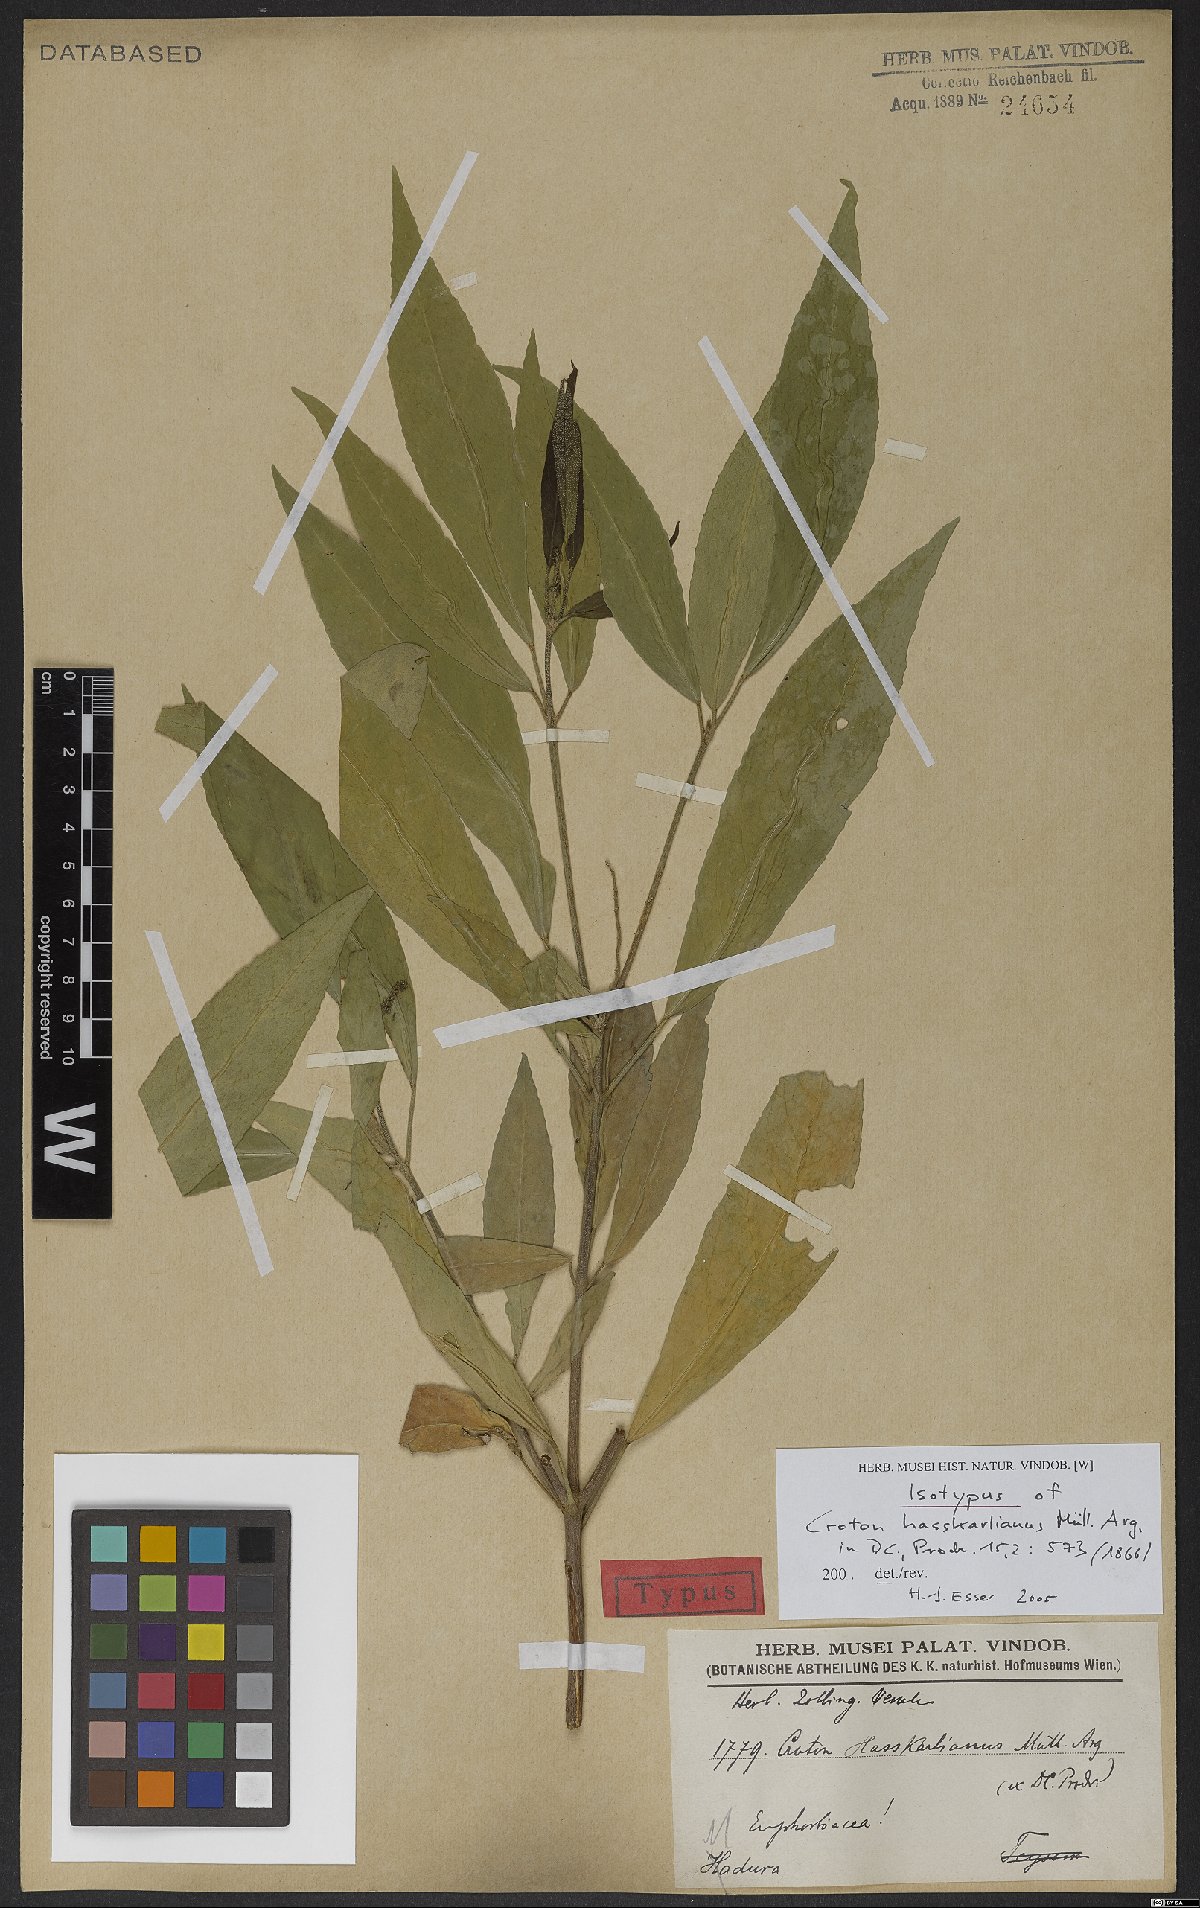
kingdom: Plantae
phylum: Tracheophyta
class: Magnoliopsida
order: Malpighiales
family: Euphorbiaceae
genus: Croton
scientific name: Croton hasskarlianus
